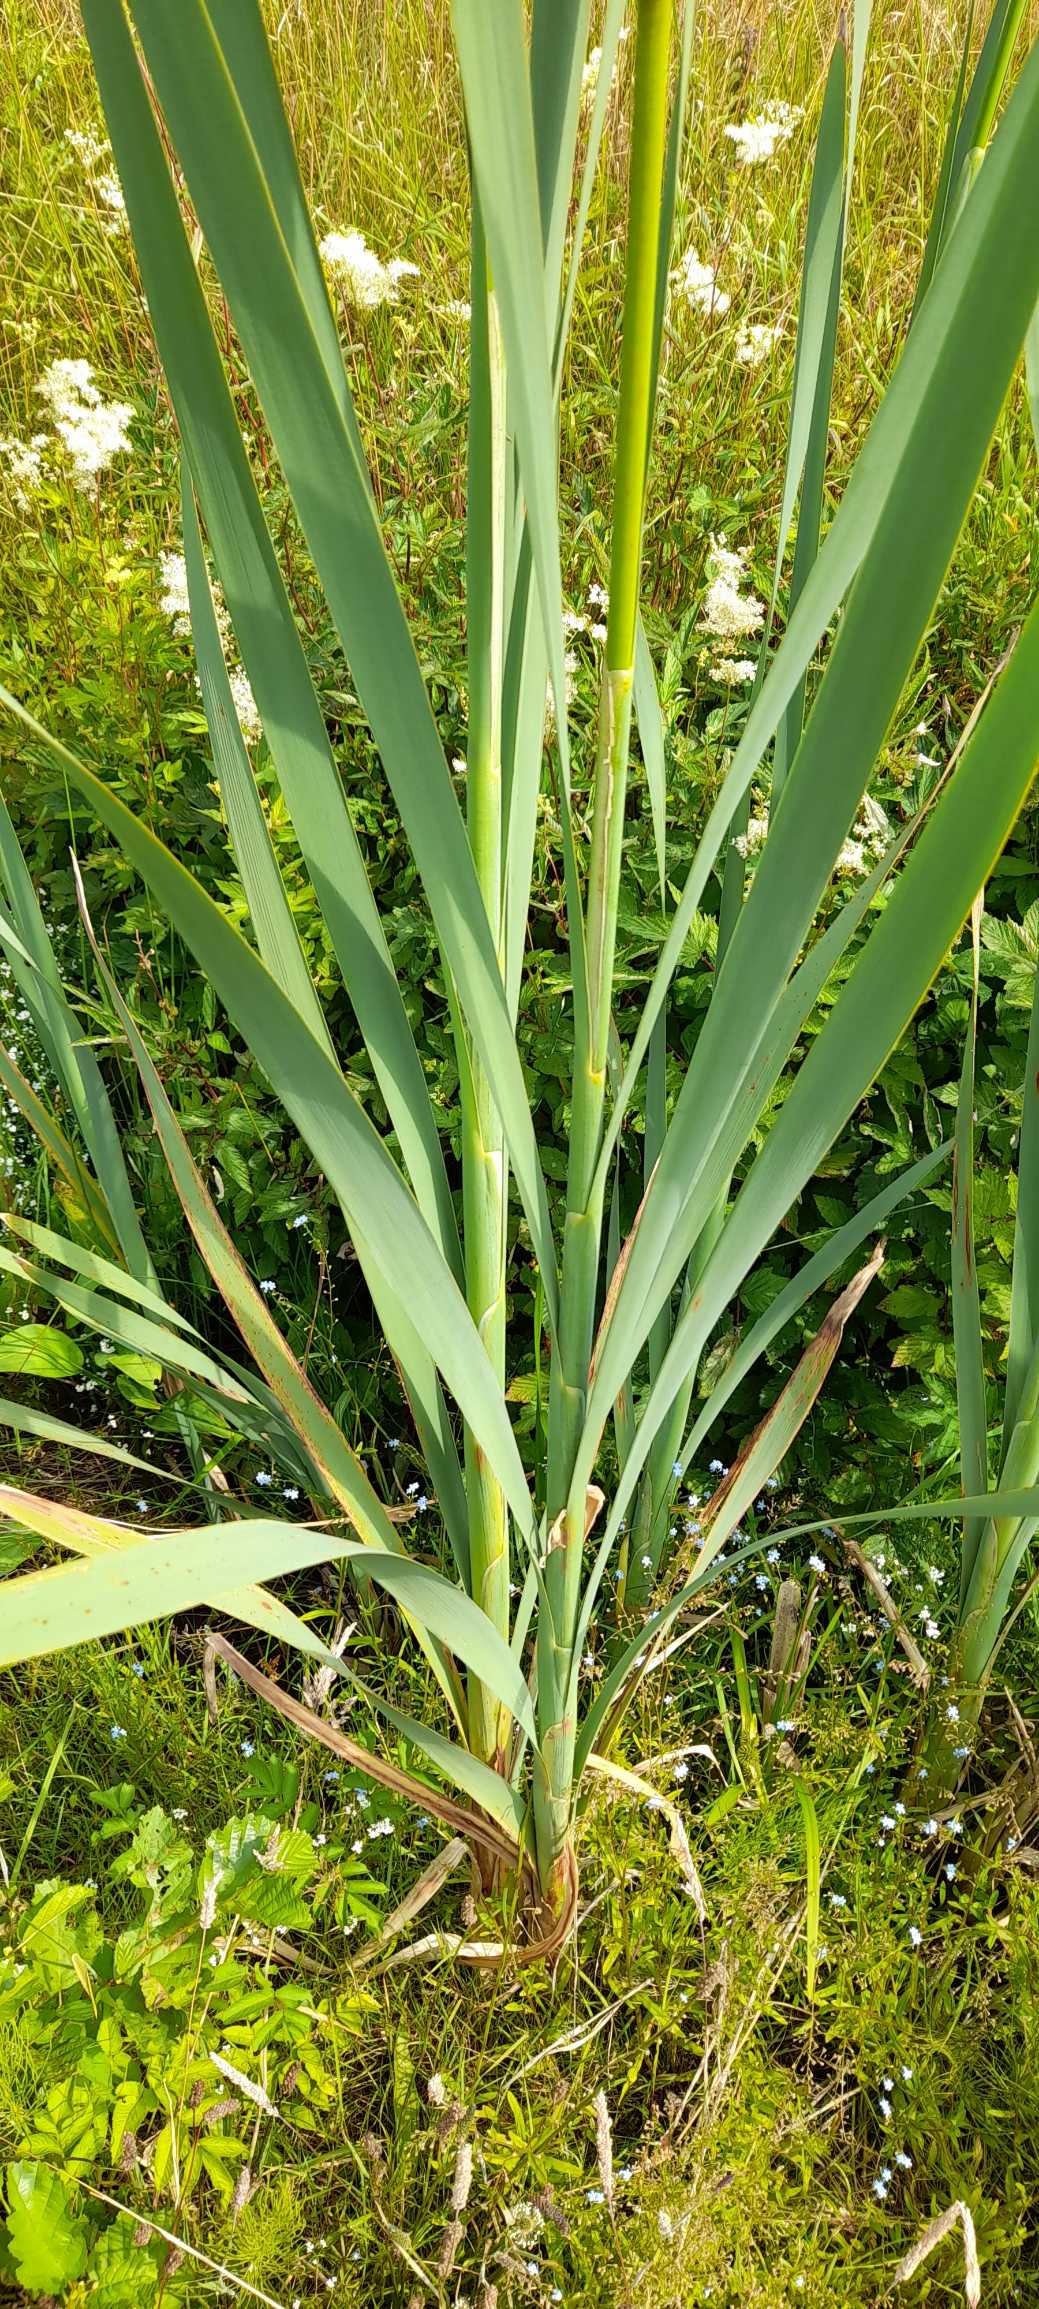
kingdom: Plantae
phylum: Tracheophyta
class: Liliopsida
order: Poales
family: Typhaceae
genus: Typha
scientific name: Typha latifolia
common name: Bredbladet dunhammer
